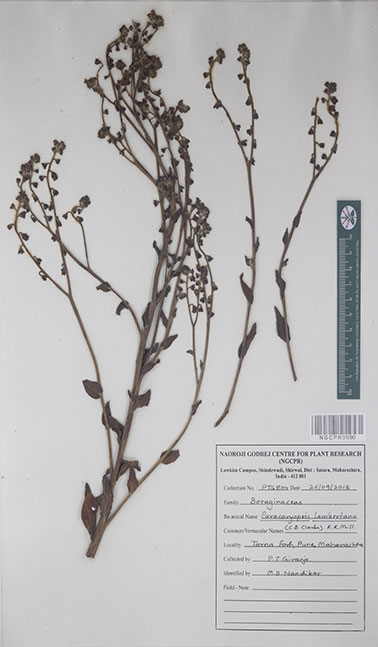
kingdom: Plantae
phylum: Tracheophyta
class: Magnoliopsida
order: Boraginales
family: Boraginaceae
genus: Paracaryum
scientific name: Paracaryum lambertianum
